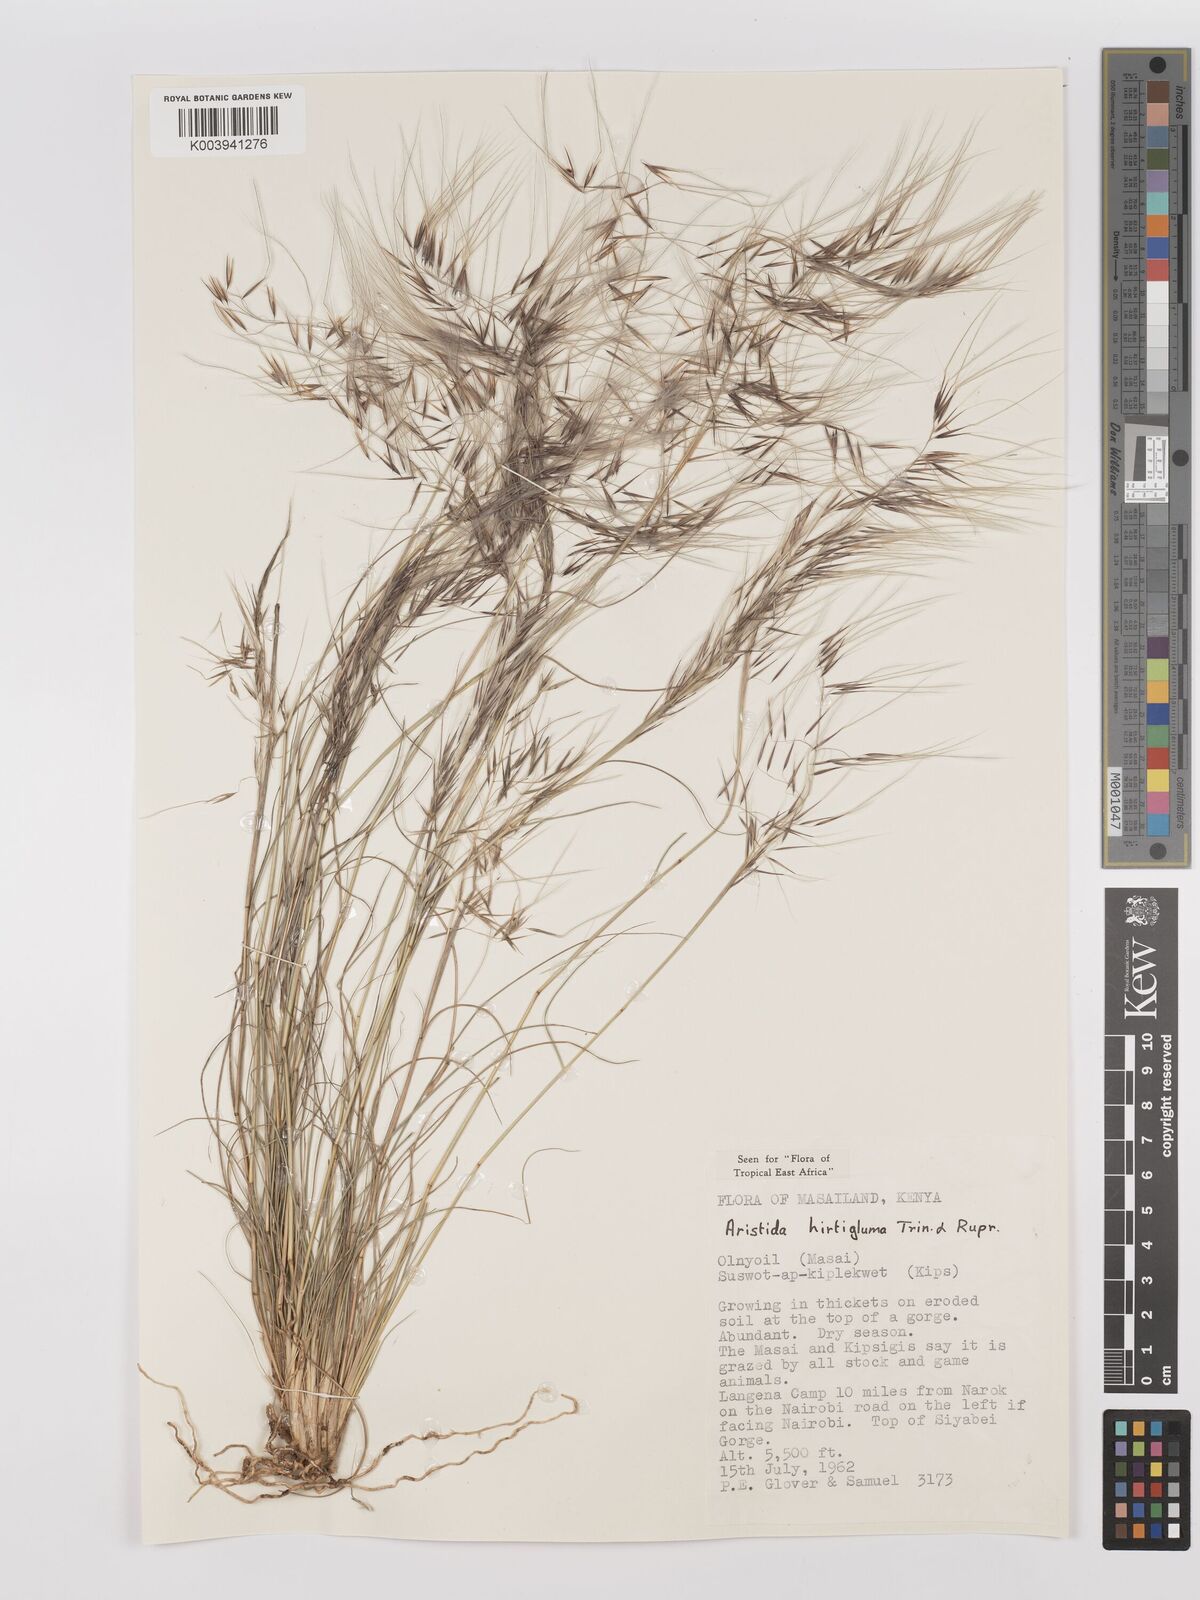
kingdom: Plantae
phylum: Tracheophyta
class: Liliopsida
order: Poales
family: Poaceae
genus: Stipagrostis
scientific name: Stipagrostis hirtigluma
